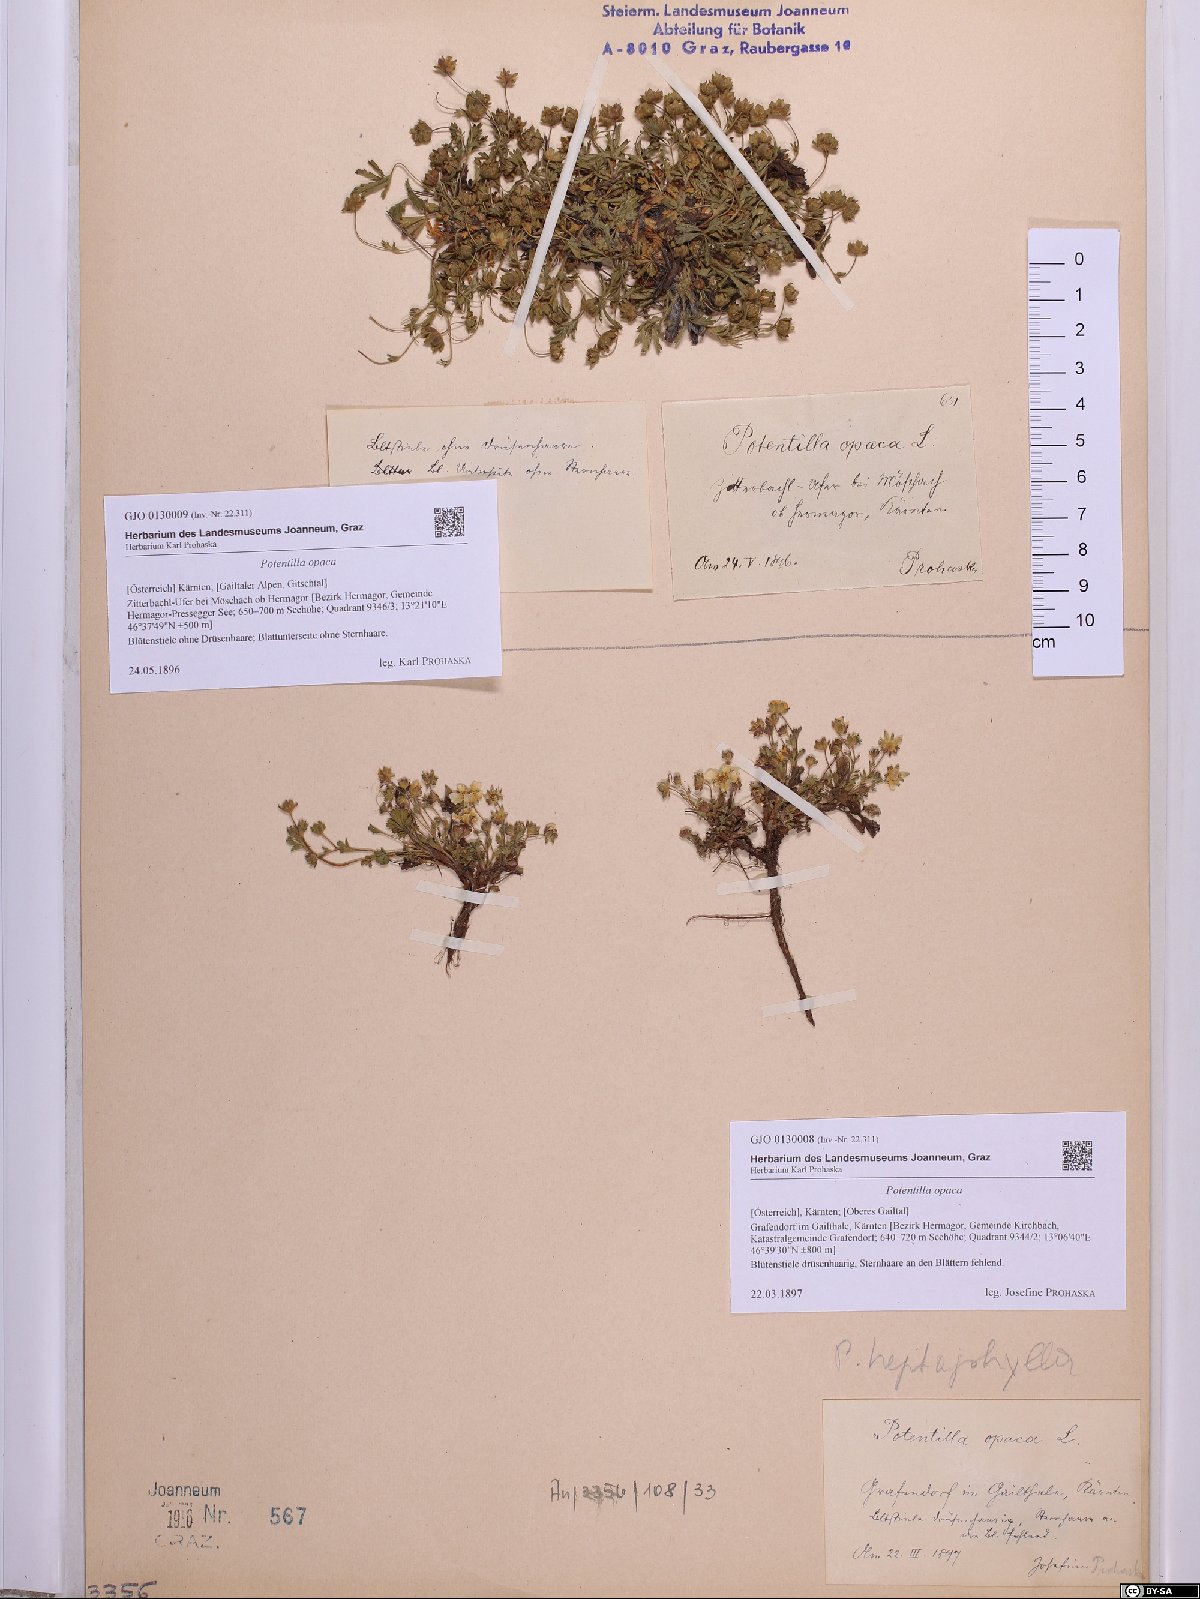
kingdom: Plantae
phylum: Tracheophyta
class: Magnoliopsida
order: Rosales
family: Rosaceae
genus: Potentilla
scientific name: Potentilla
